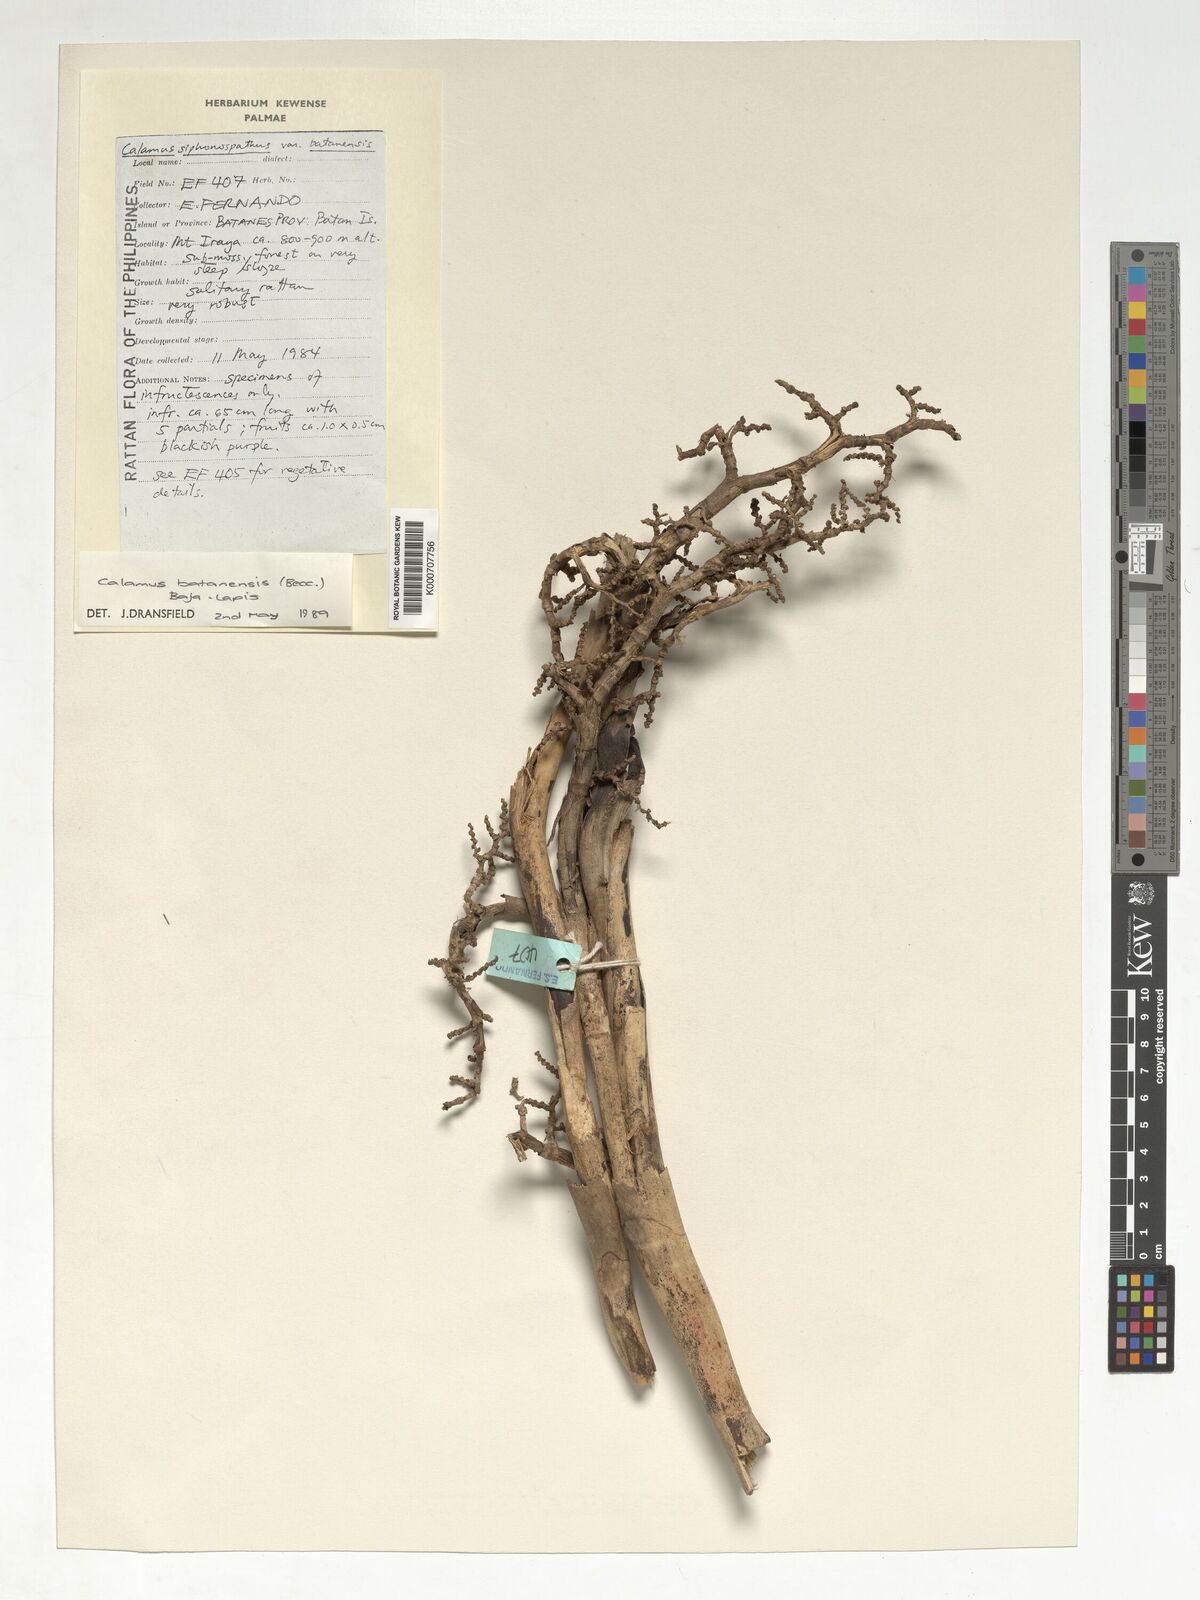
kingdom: Plantae
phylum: Tracheophyta
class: Liliopsida
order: Arecales
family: Arecaceae
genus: Calamus
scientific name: Calamus batanensis
